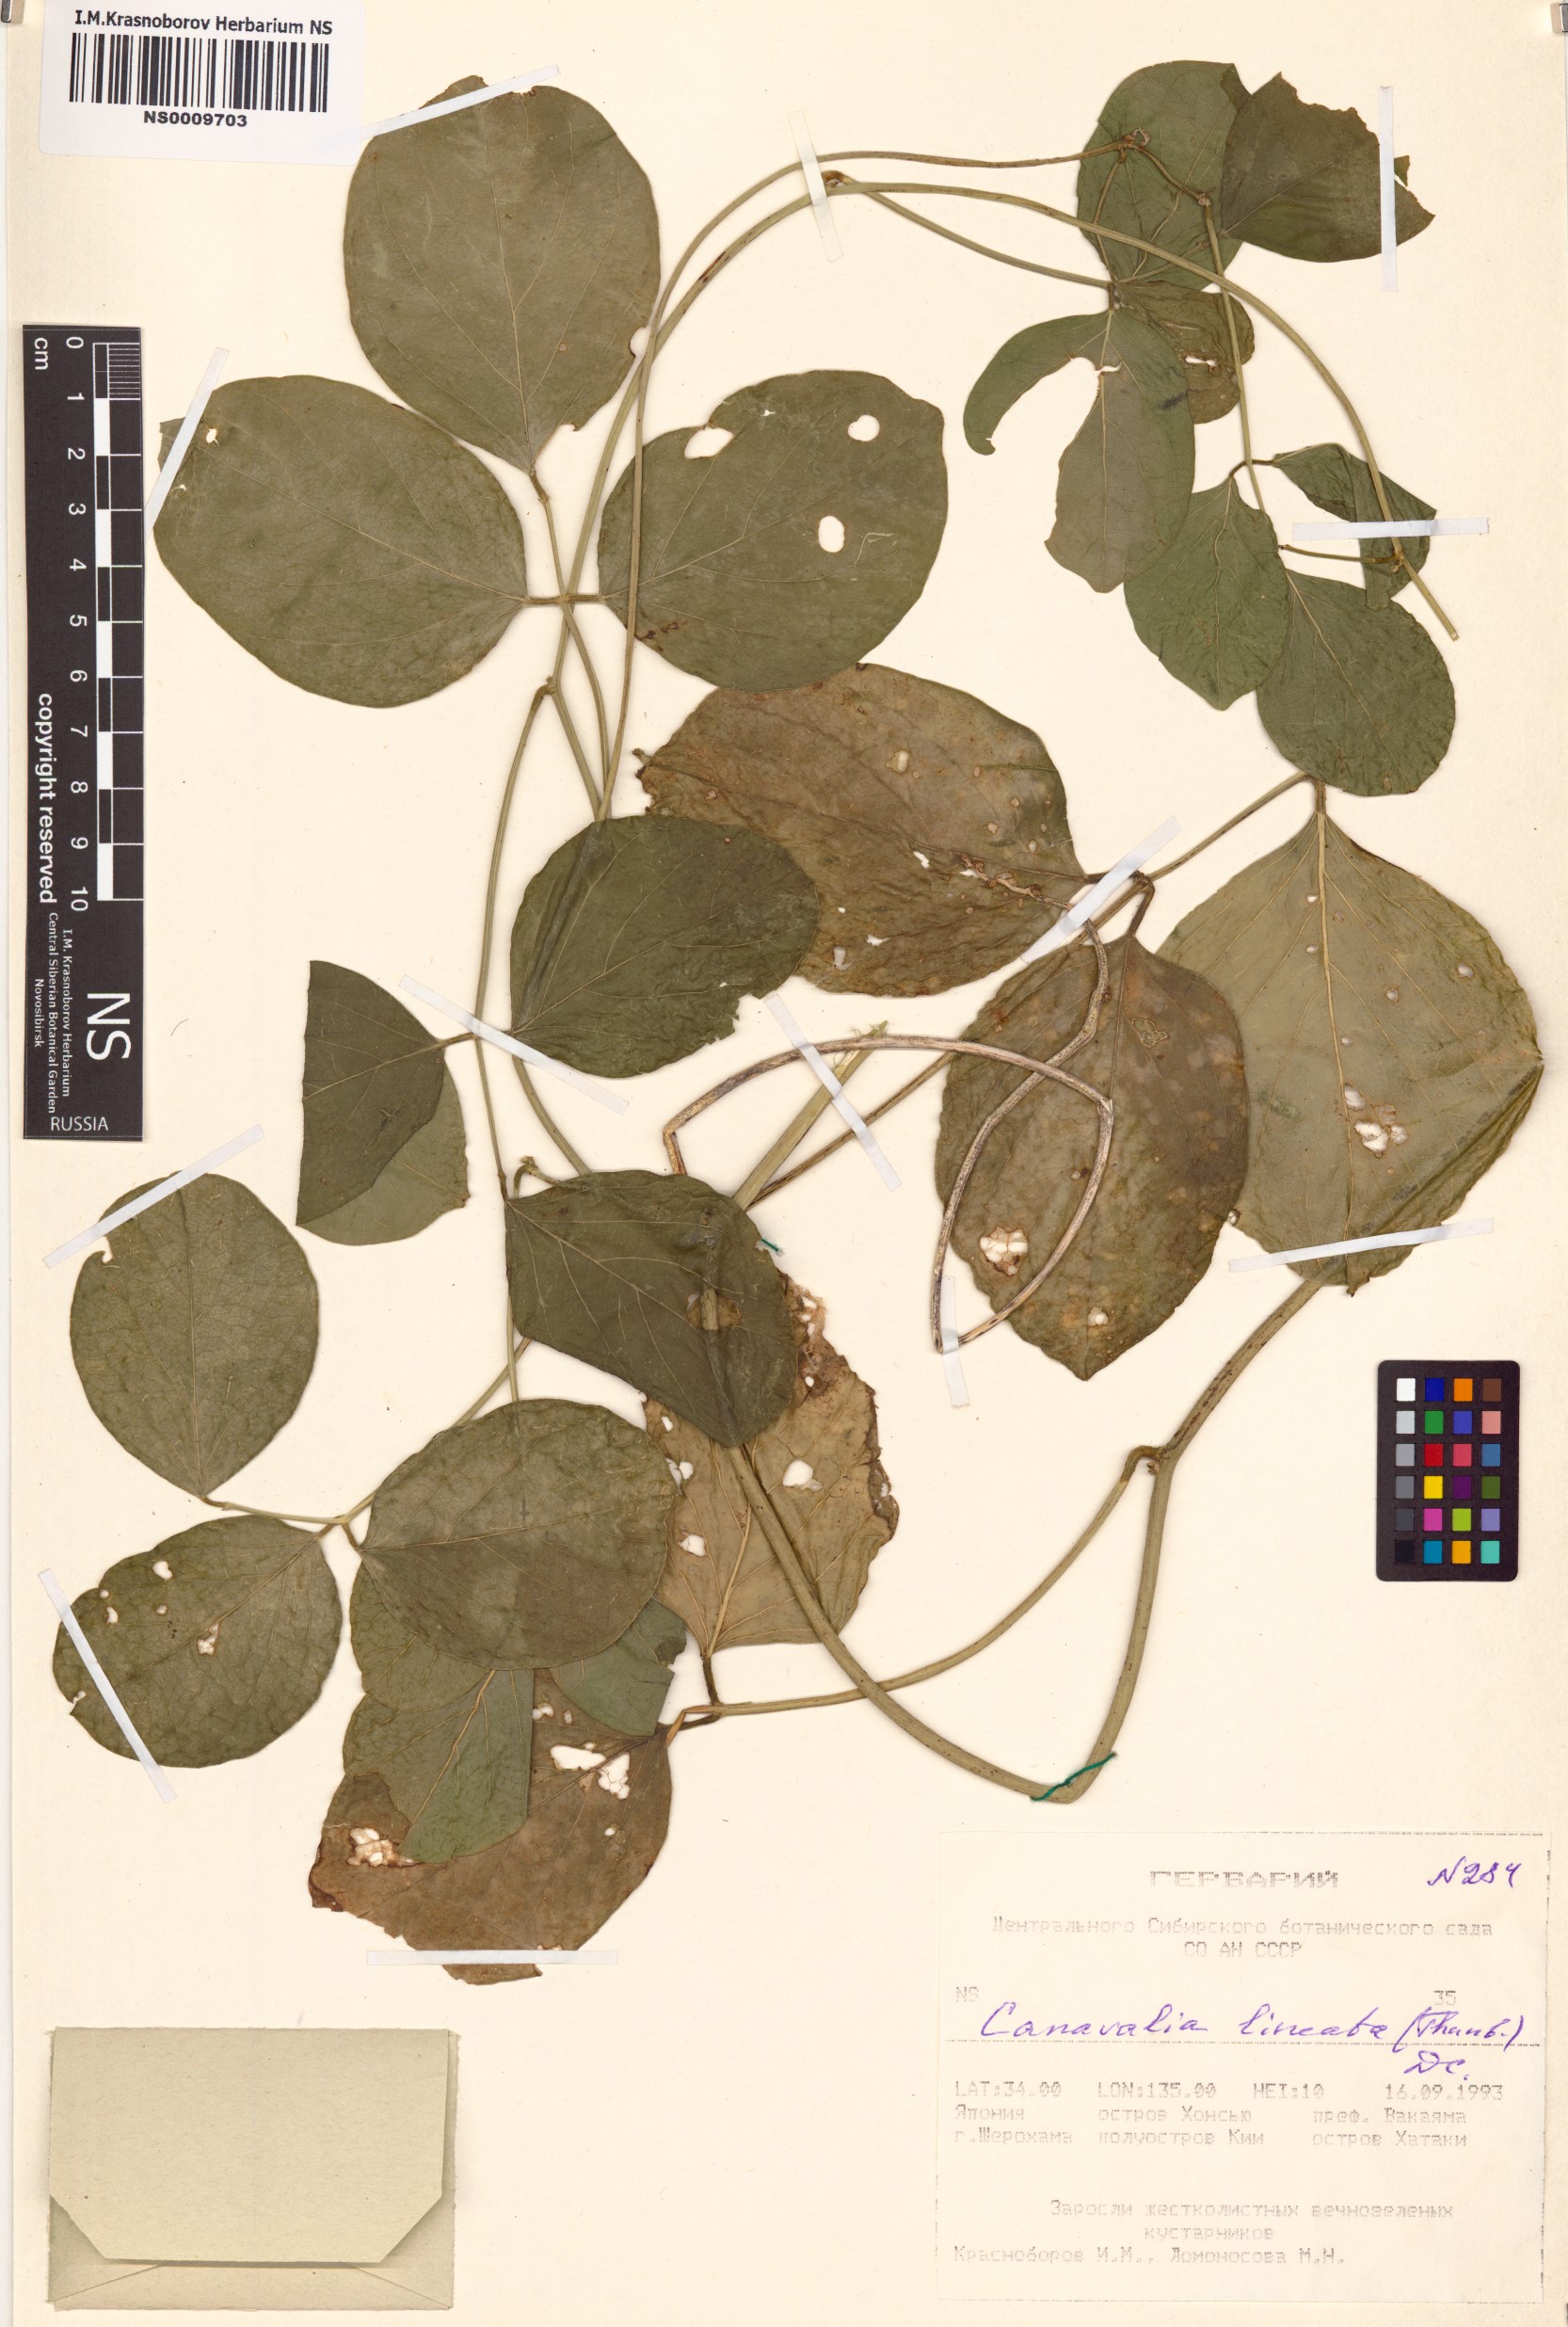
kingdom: Plantae
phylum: Tracheophyta
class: Magnoliopsida
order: Fabales
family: Fabaceae
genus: Canavalia
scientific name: Canavalia lineata
